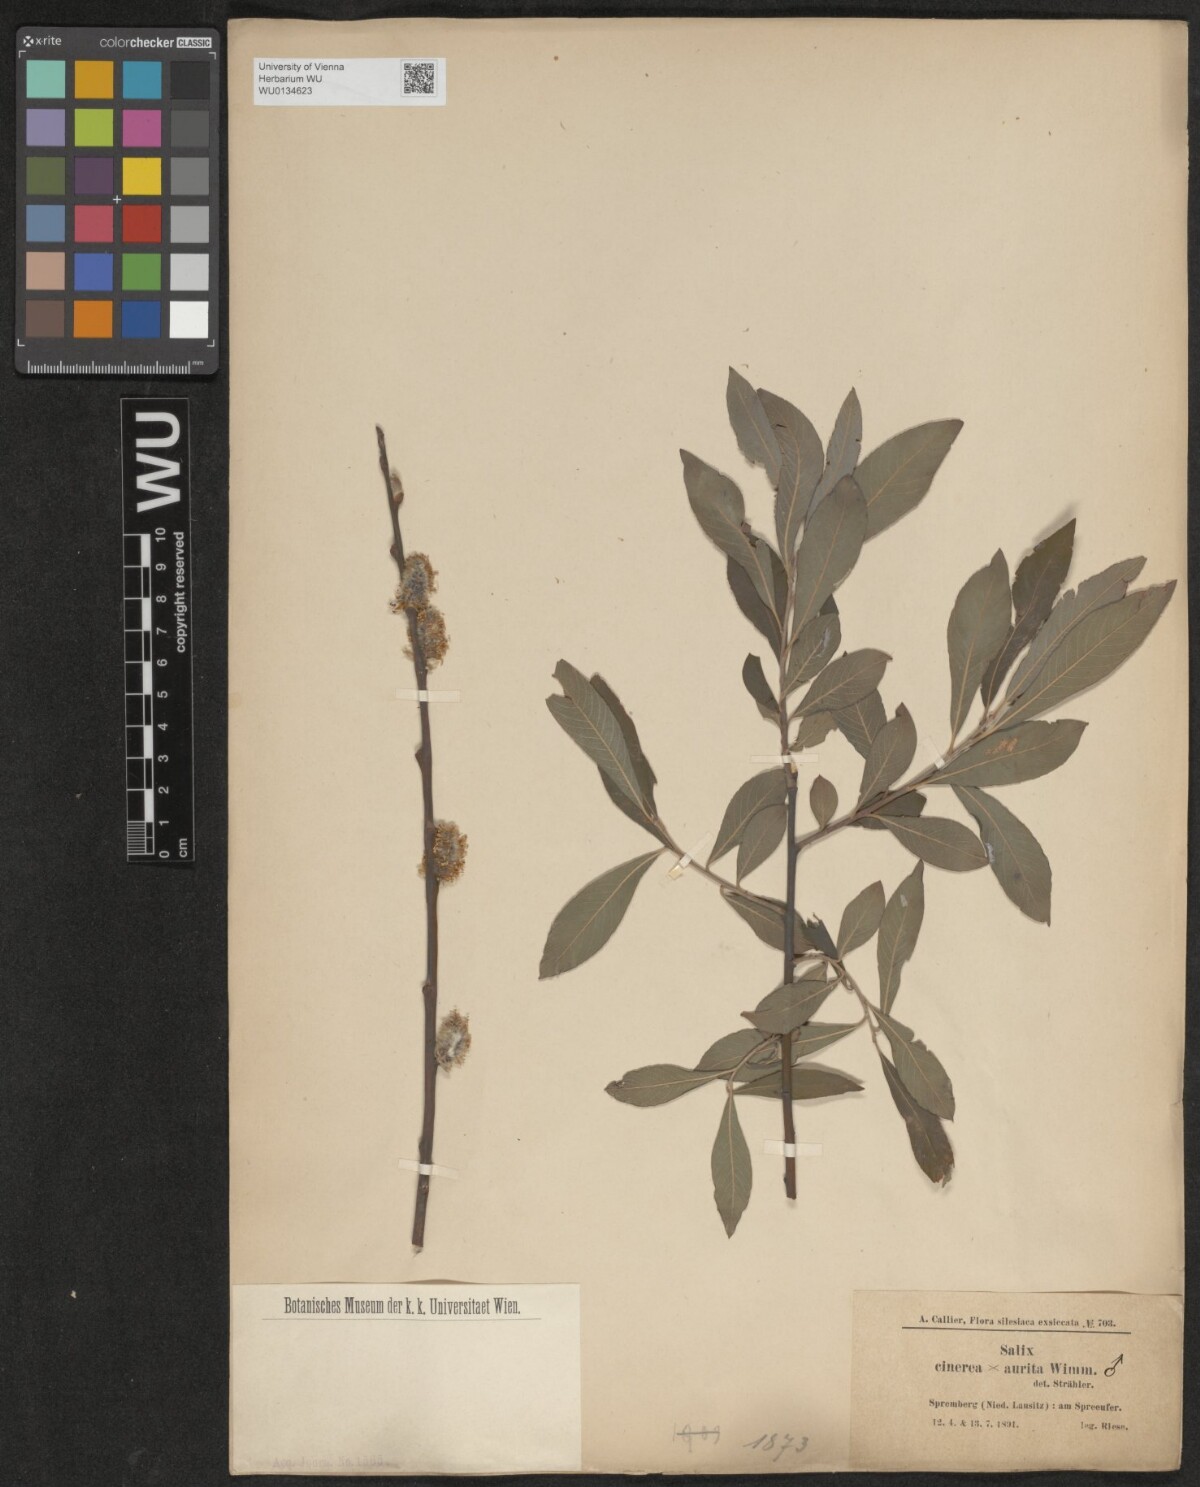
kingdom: Plantae
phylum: Tracheophyta
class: Magnoliopsida
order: Malpighiales
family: Salicaceae
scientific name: Salicaceae
